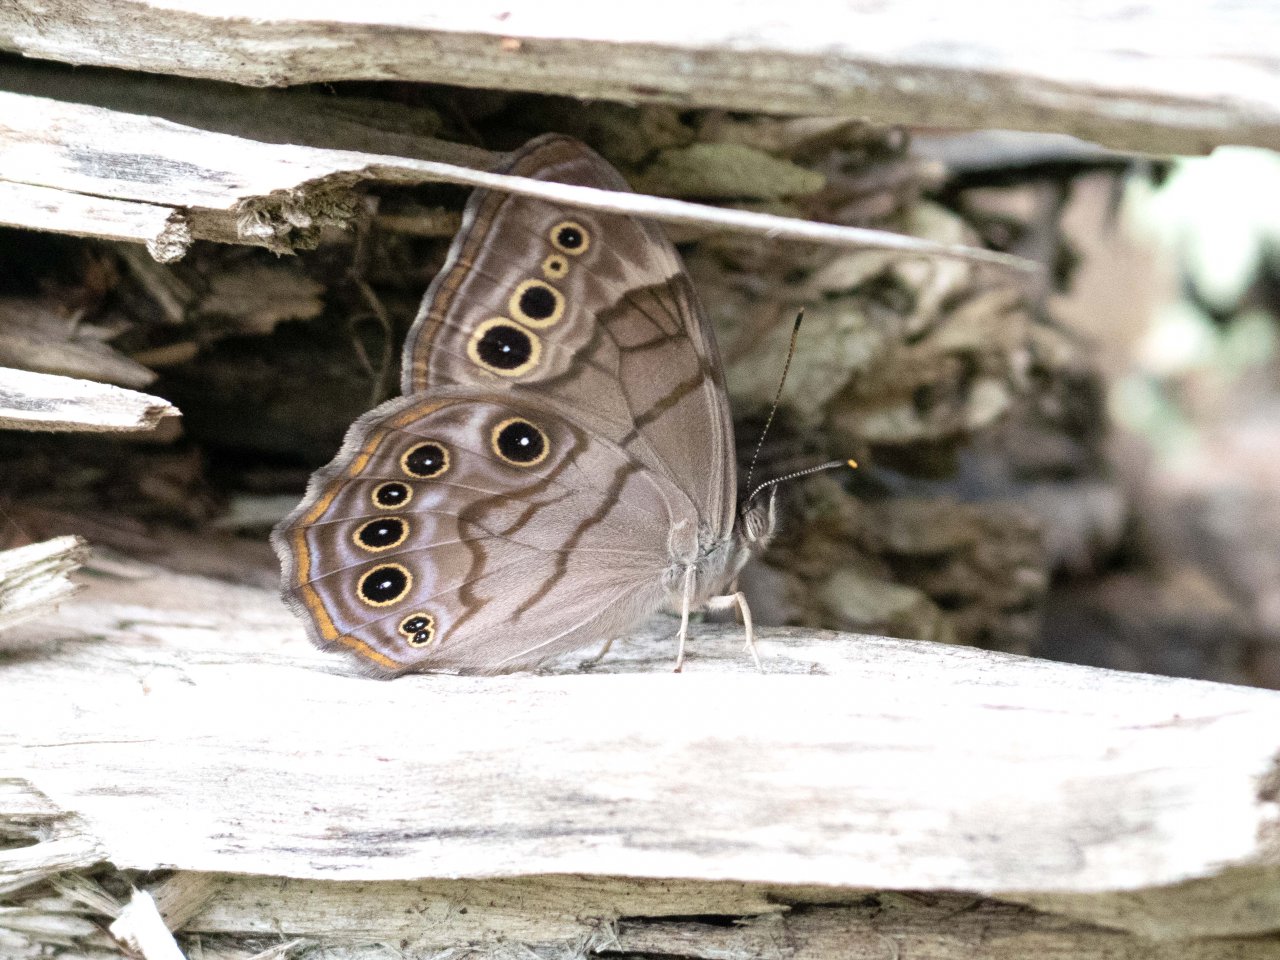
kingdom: Animalia
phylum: Arthropoda
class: Insecta
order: Lepidoptera
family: Nymphalidae
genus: Lethe
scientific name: Lethe anthedon
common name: Northern Pearly-Eye
